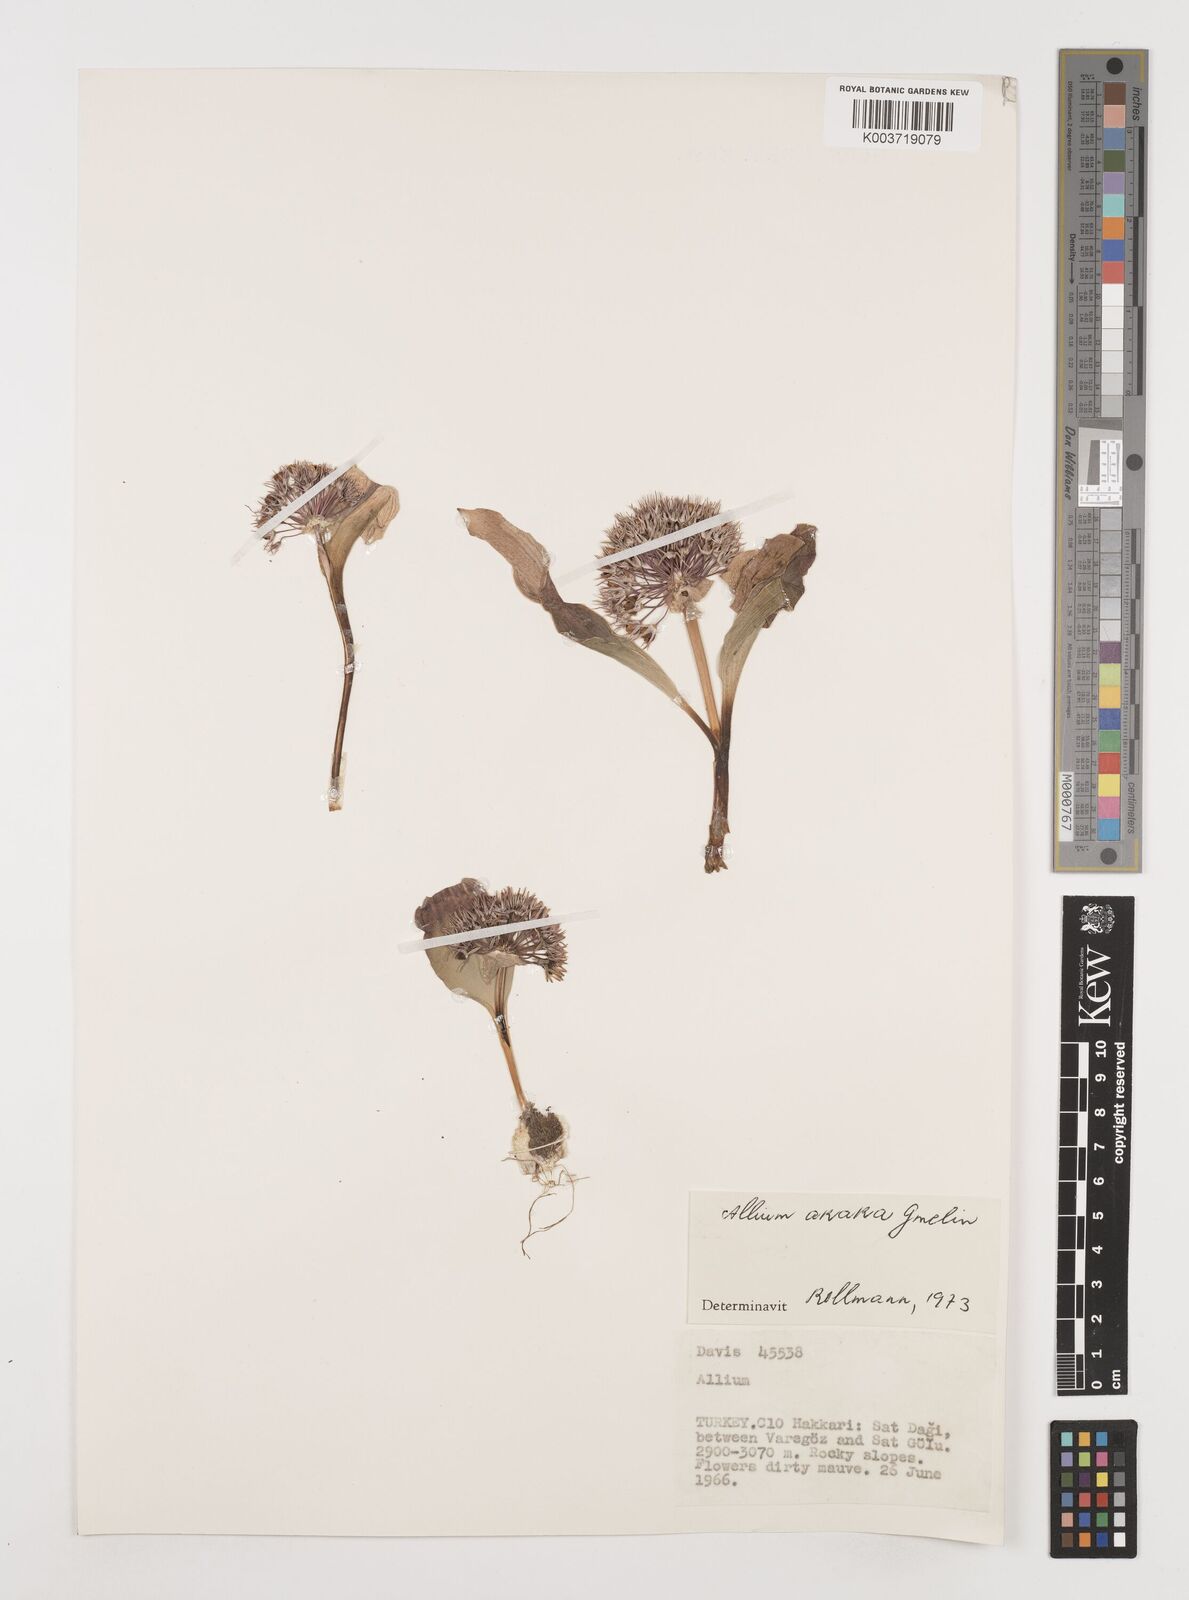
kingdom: Plantae
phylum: Tracheophyta
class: Liliopsida
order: Asparagales
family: Amaryllidaceae
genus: Allium
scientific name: Allium akaka
